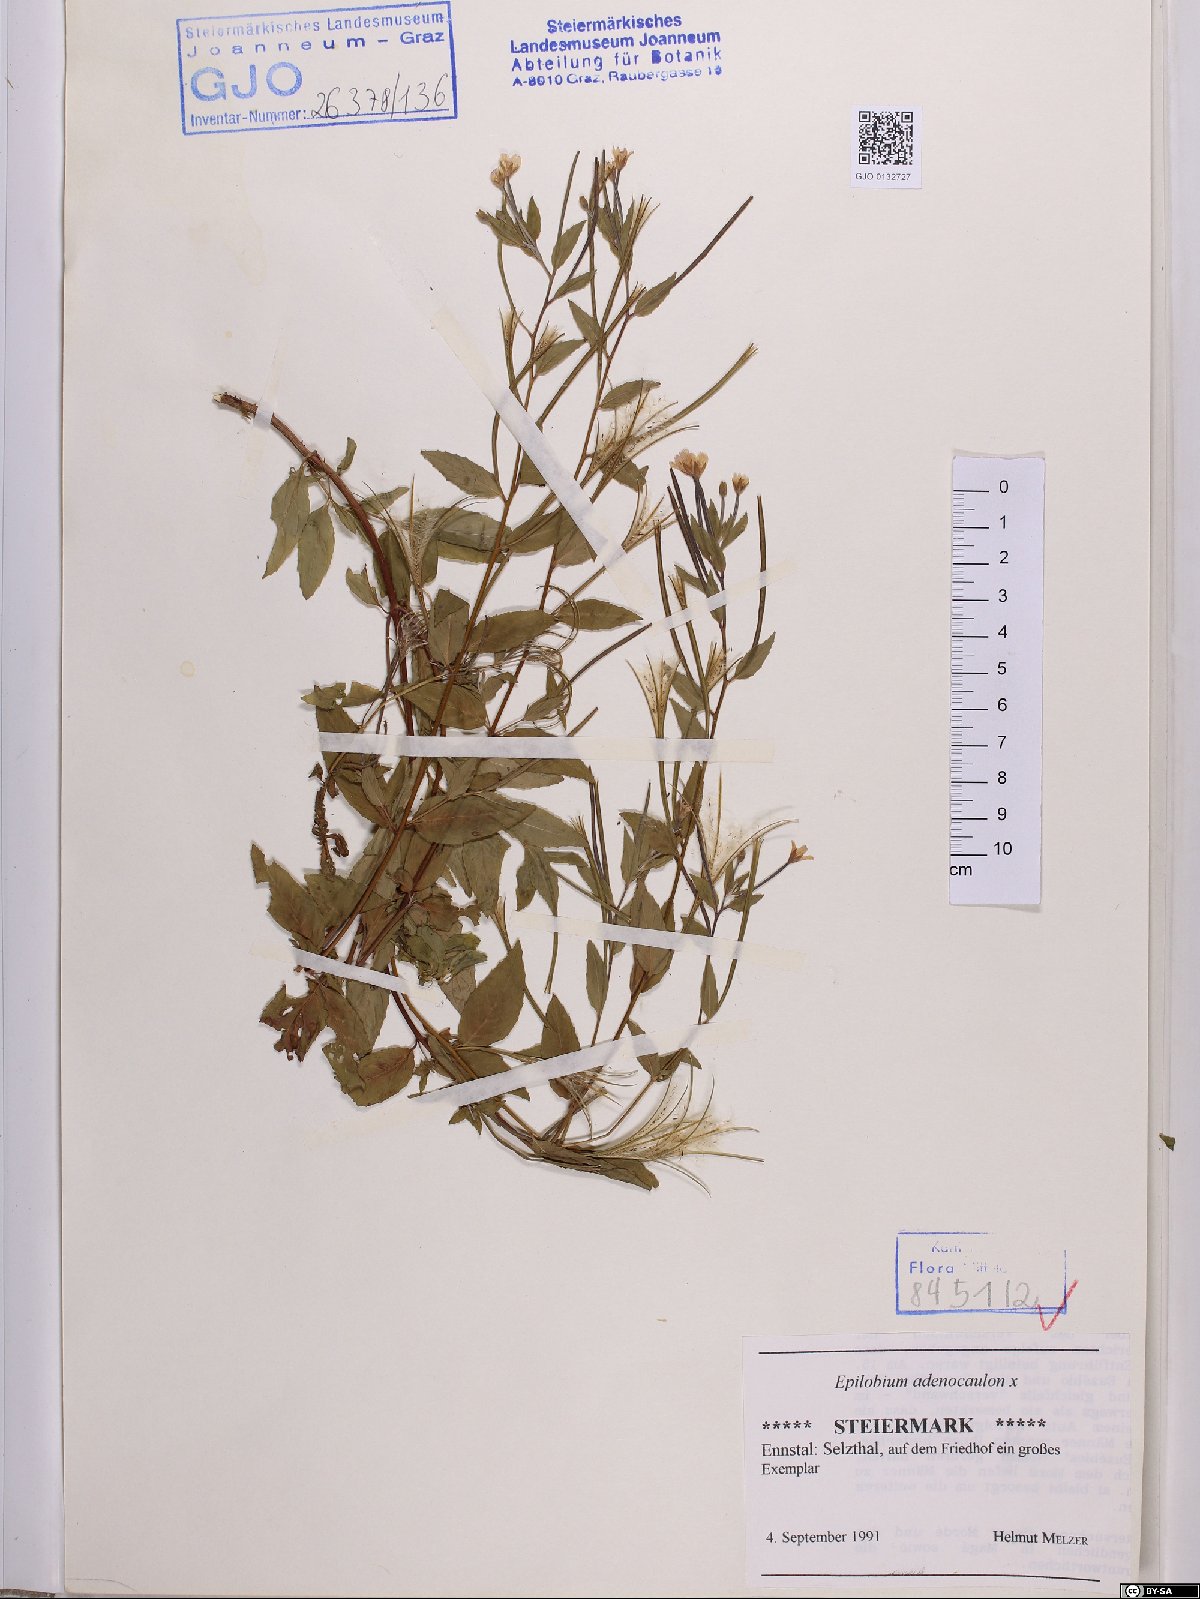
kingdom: Plantae
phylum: Tracheophyta
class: Magnoliopsida
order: Myrtales
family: Onagraceae
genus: Epilobium
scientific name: Epilobium ciliatum
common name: American willowherb
